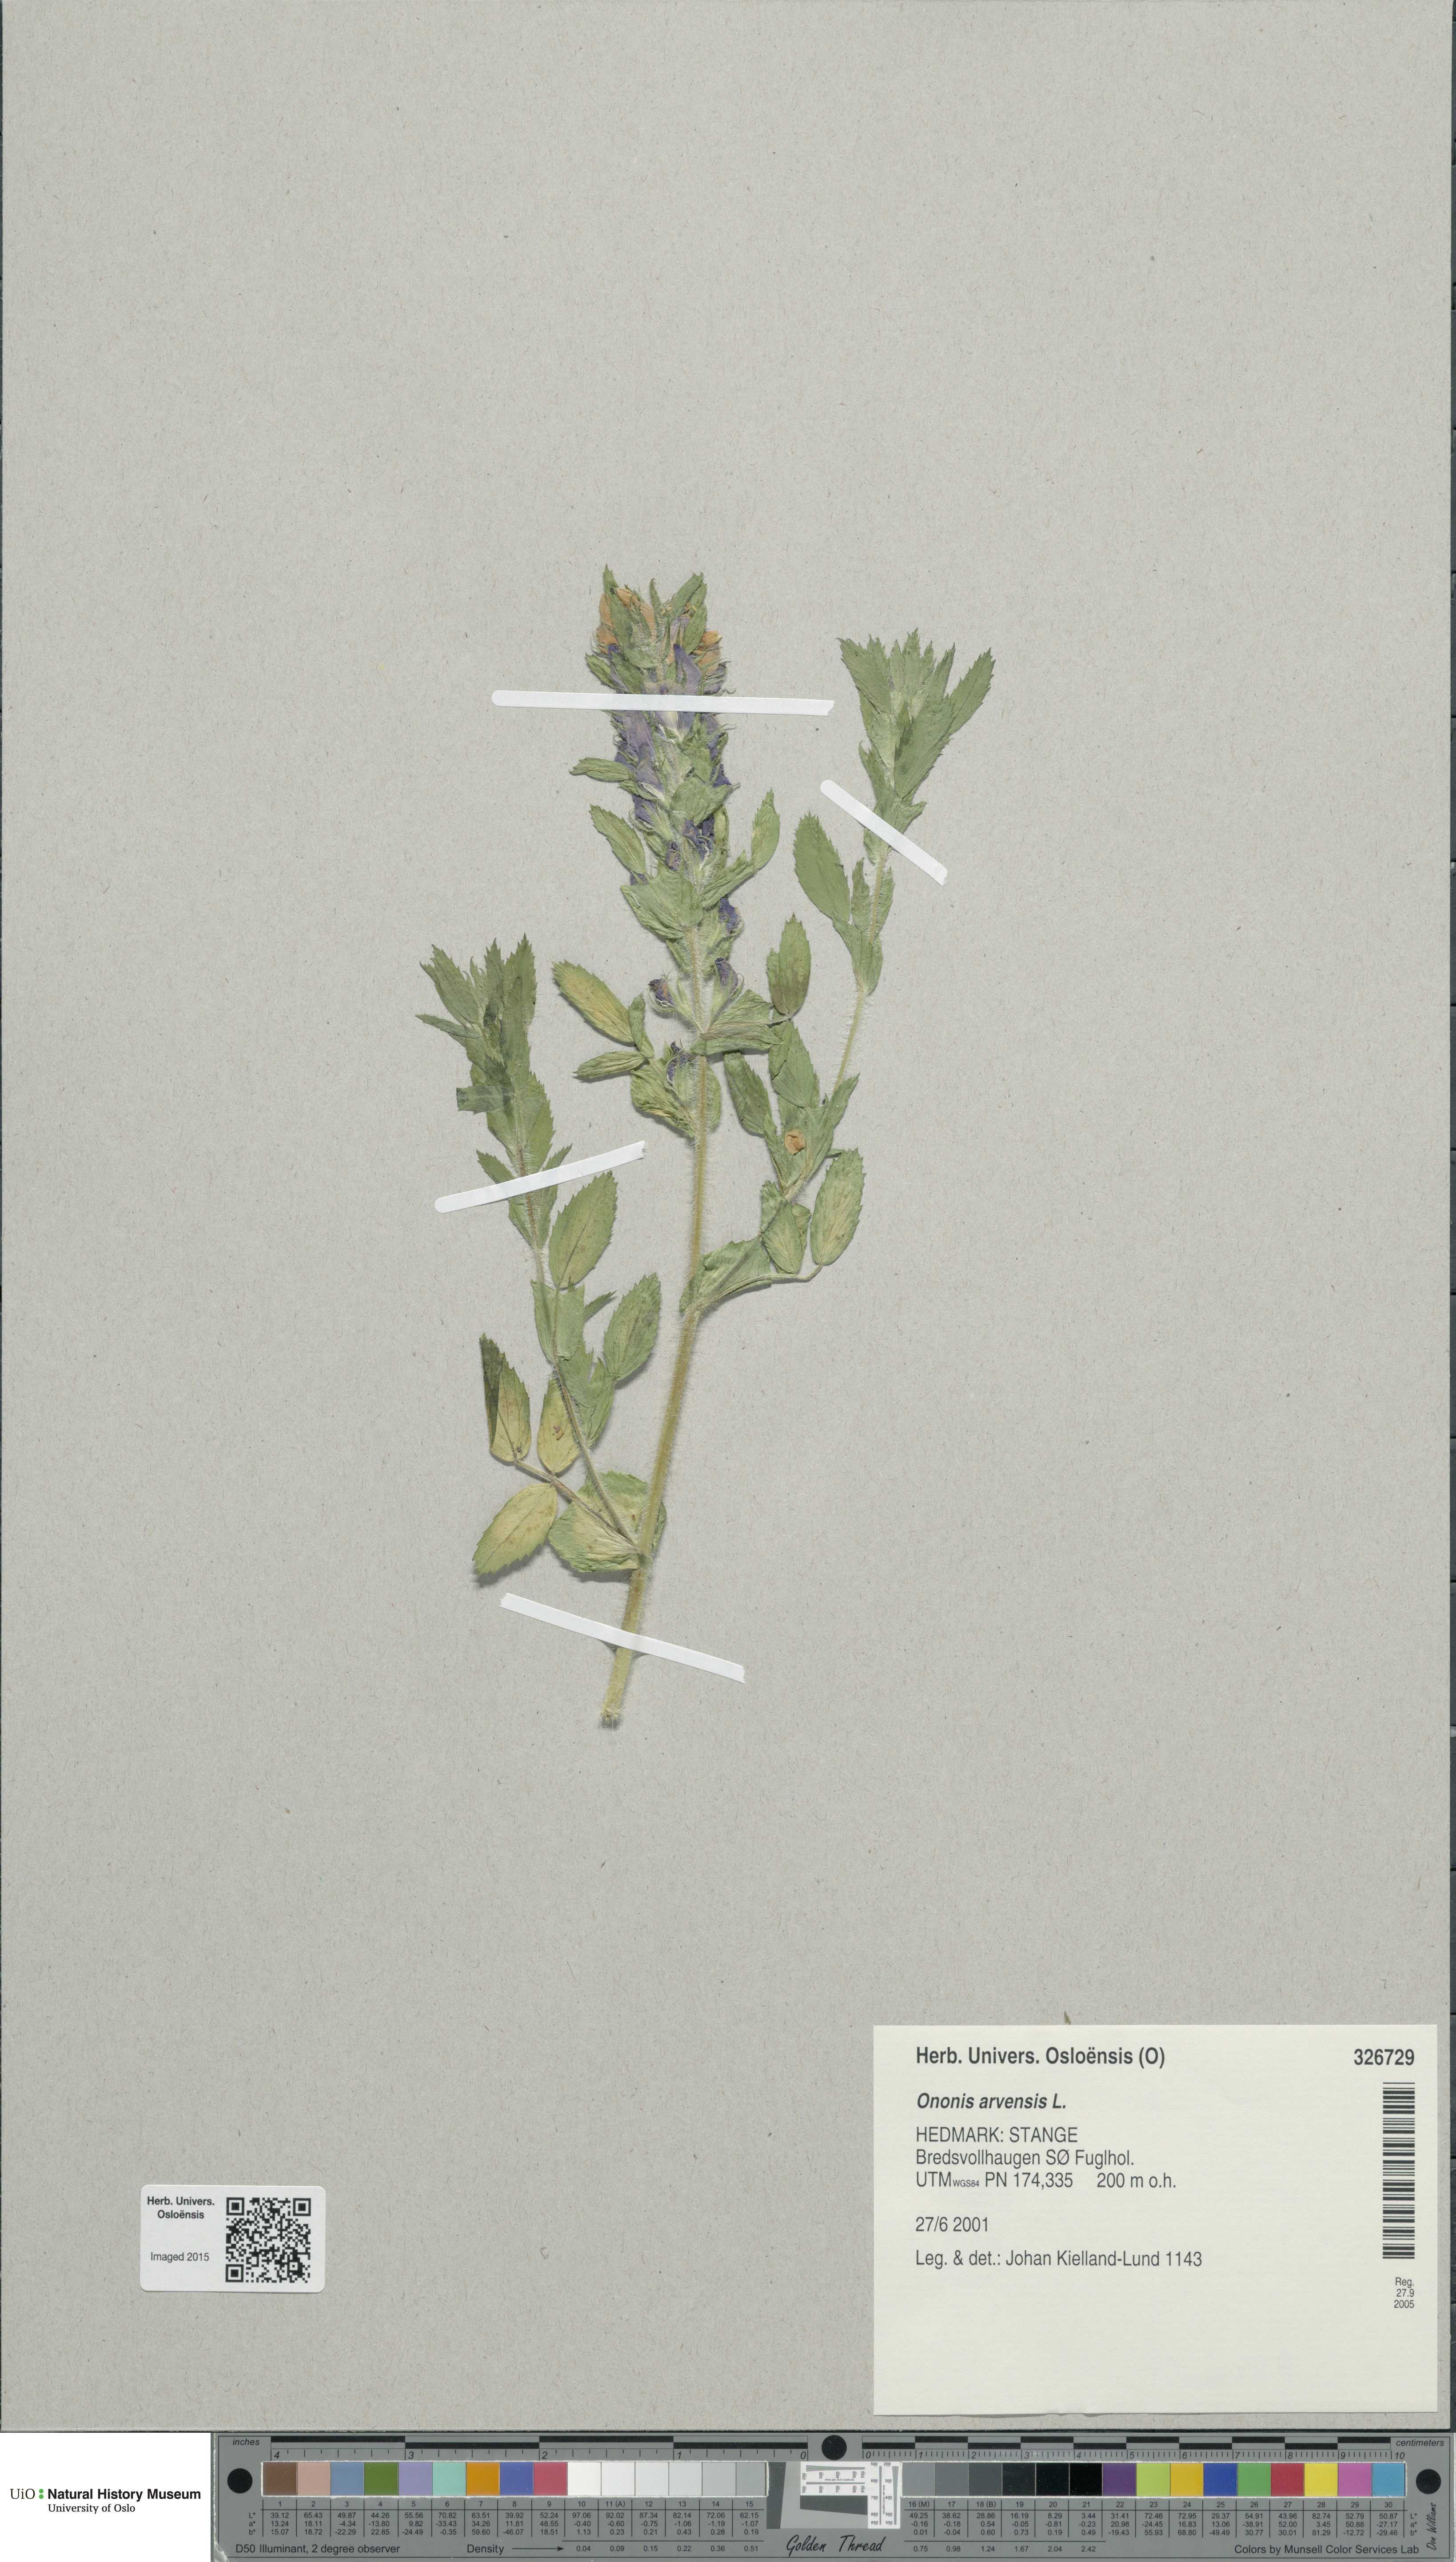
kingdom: Plantae
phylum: Tracheophyta
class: Magnoliopsida
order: Fabales
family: Fabaceae
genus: Ononis
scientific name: Ononis arvensis
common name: Field restharrow
